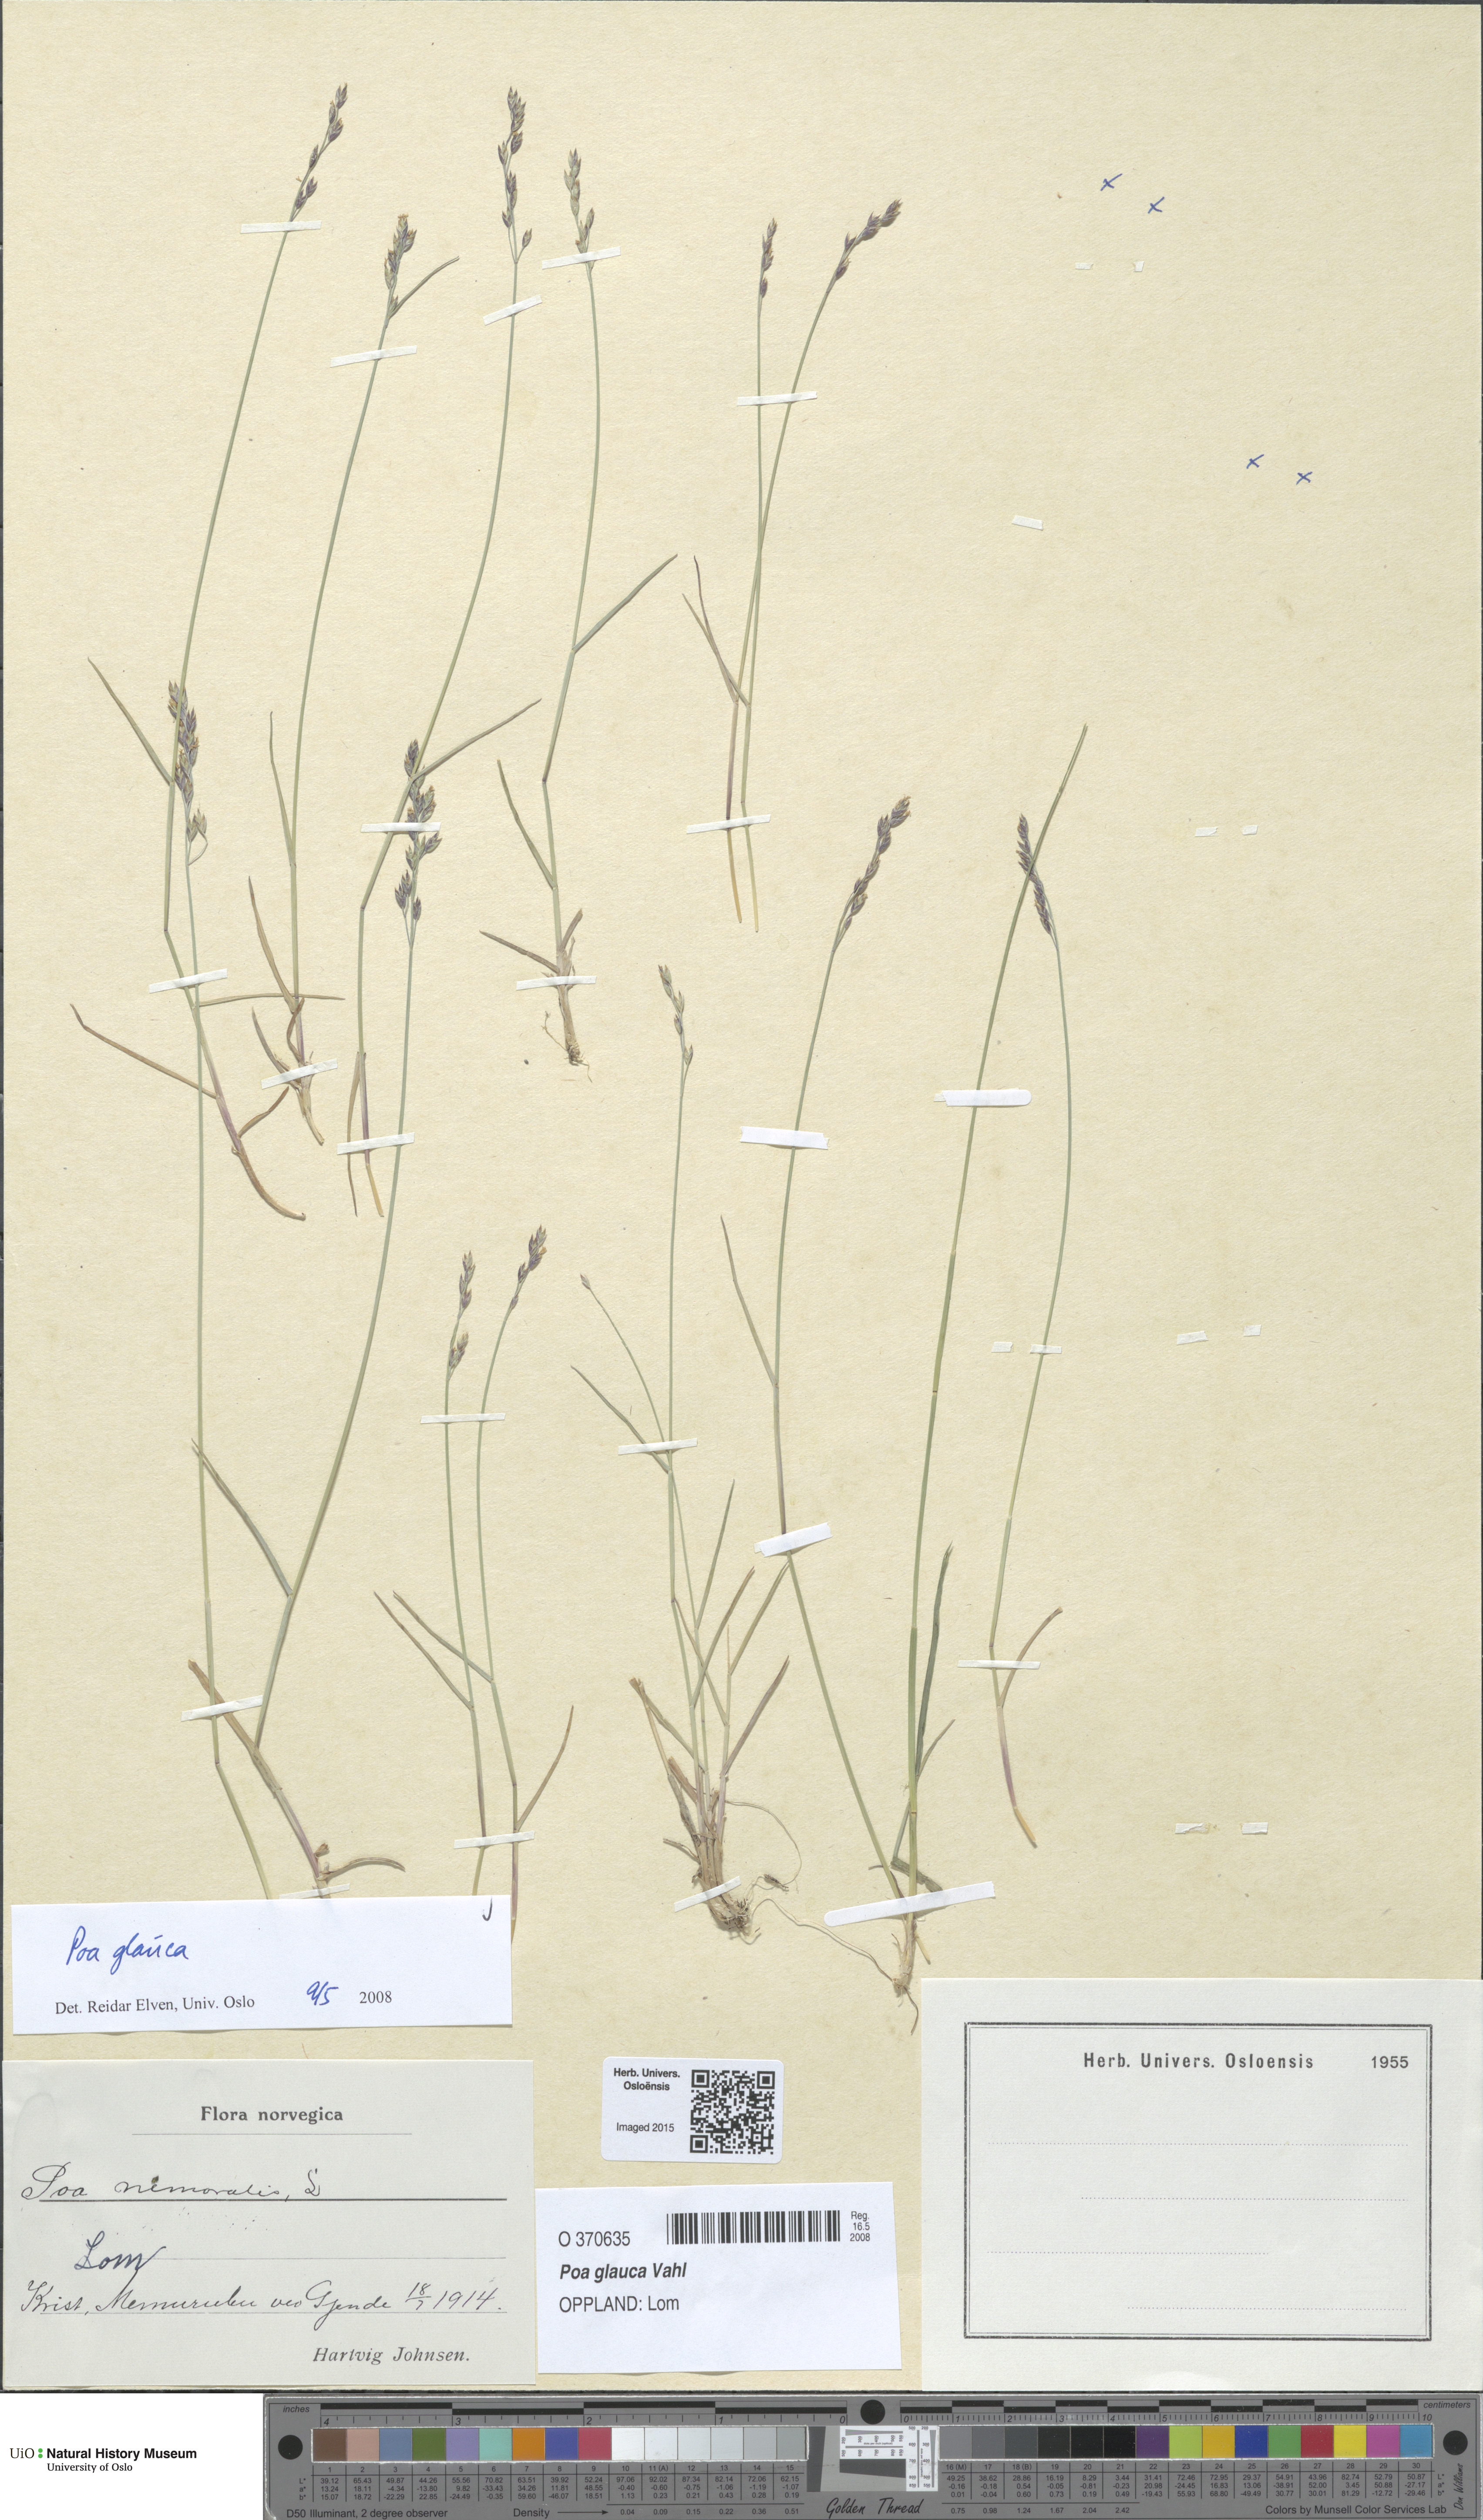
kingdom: Plantae
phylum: Tracheophyta
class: Liliopsida
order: Poales
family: Poaceae
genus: Poa
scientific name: Poa glauca
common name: Glaucous bluegrass
